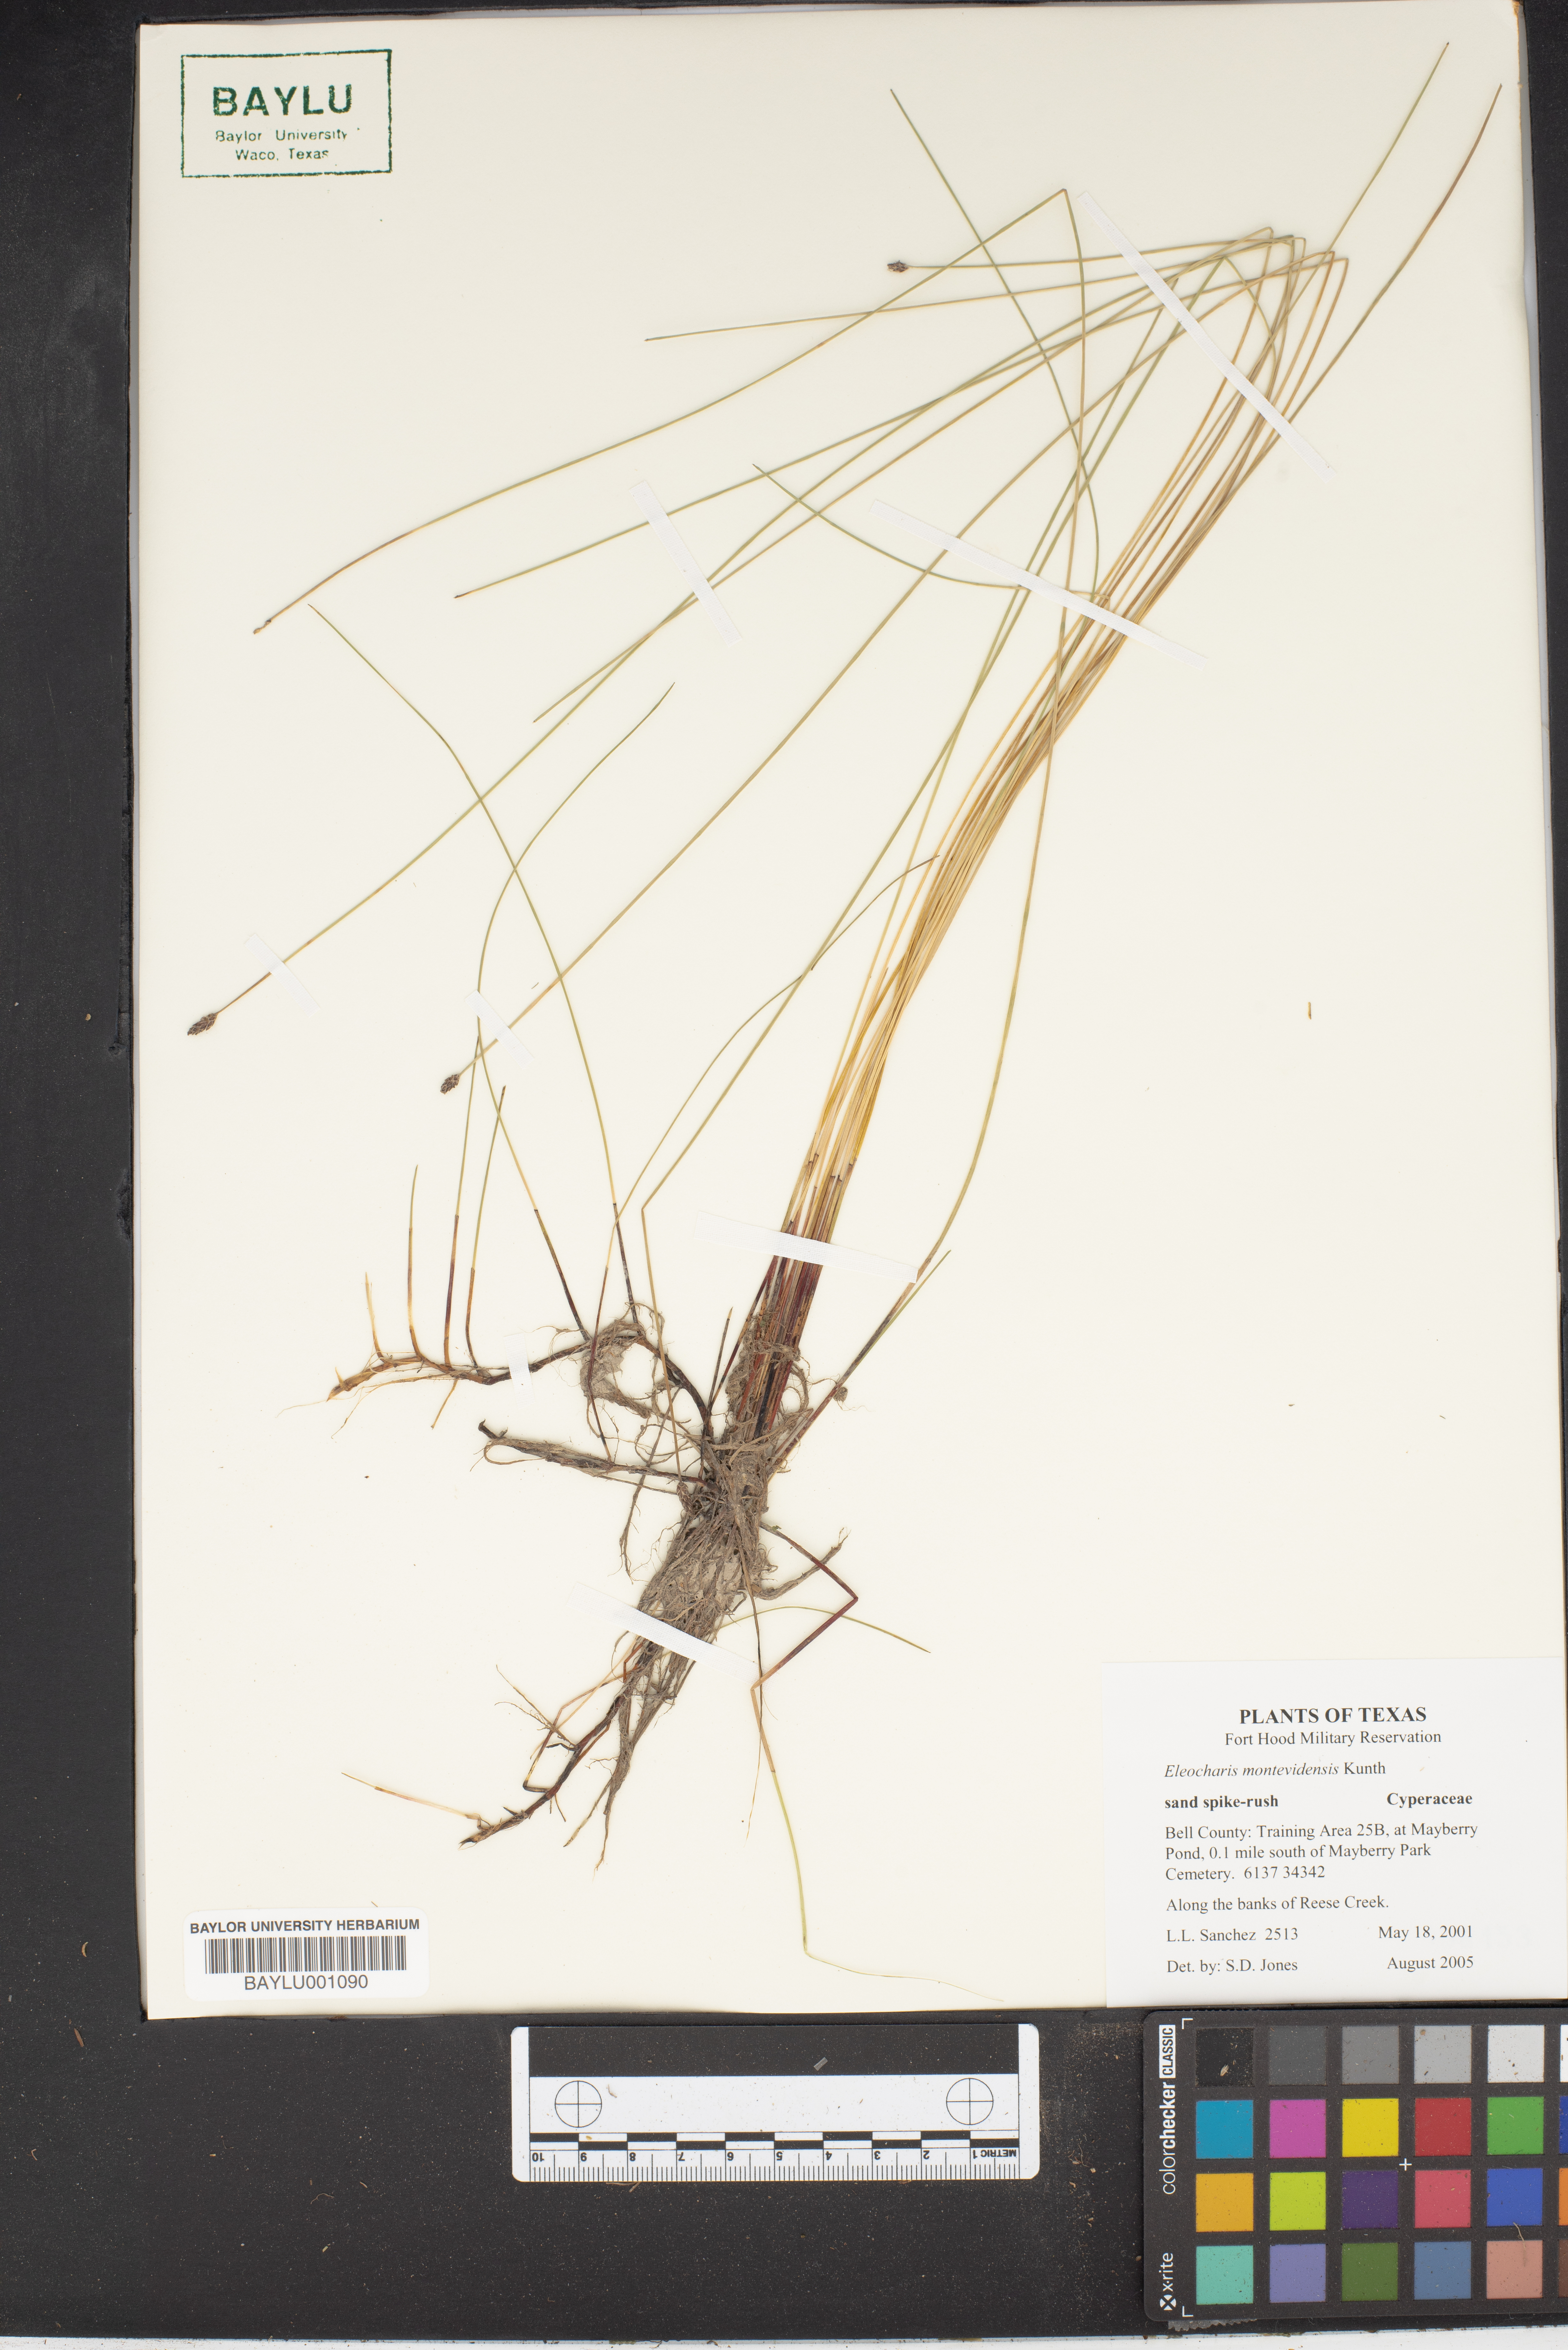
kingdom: Plantae
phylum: Tracheophyta
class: Liliopsida
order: Poales
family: Cyperaceae
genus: Eleocharis
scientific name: Eleocharis montevidensis
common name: Sand spike-rush
